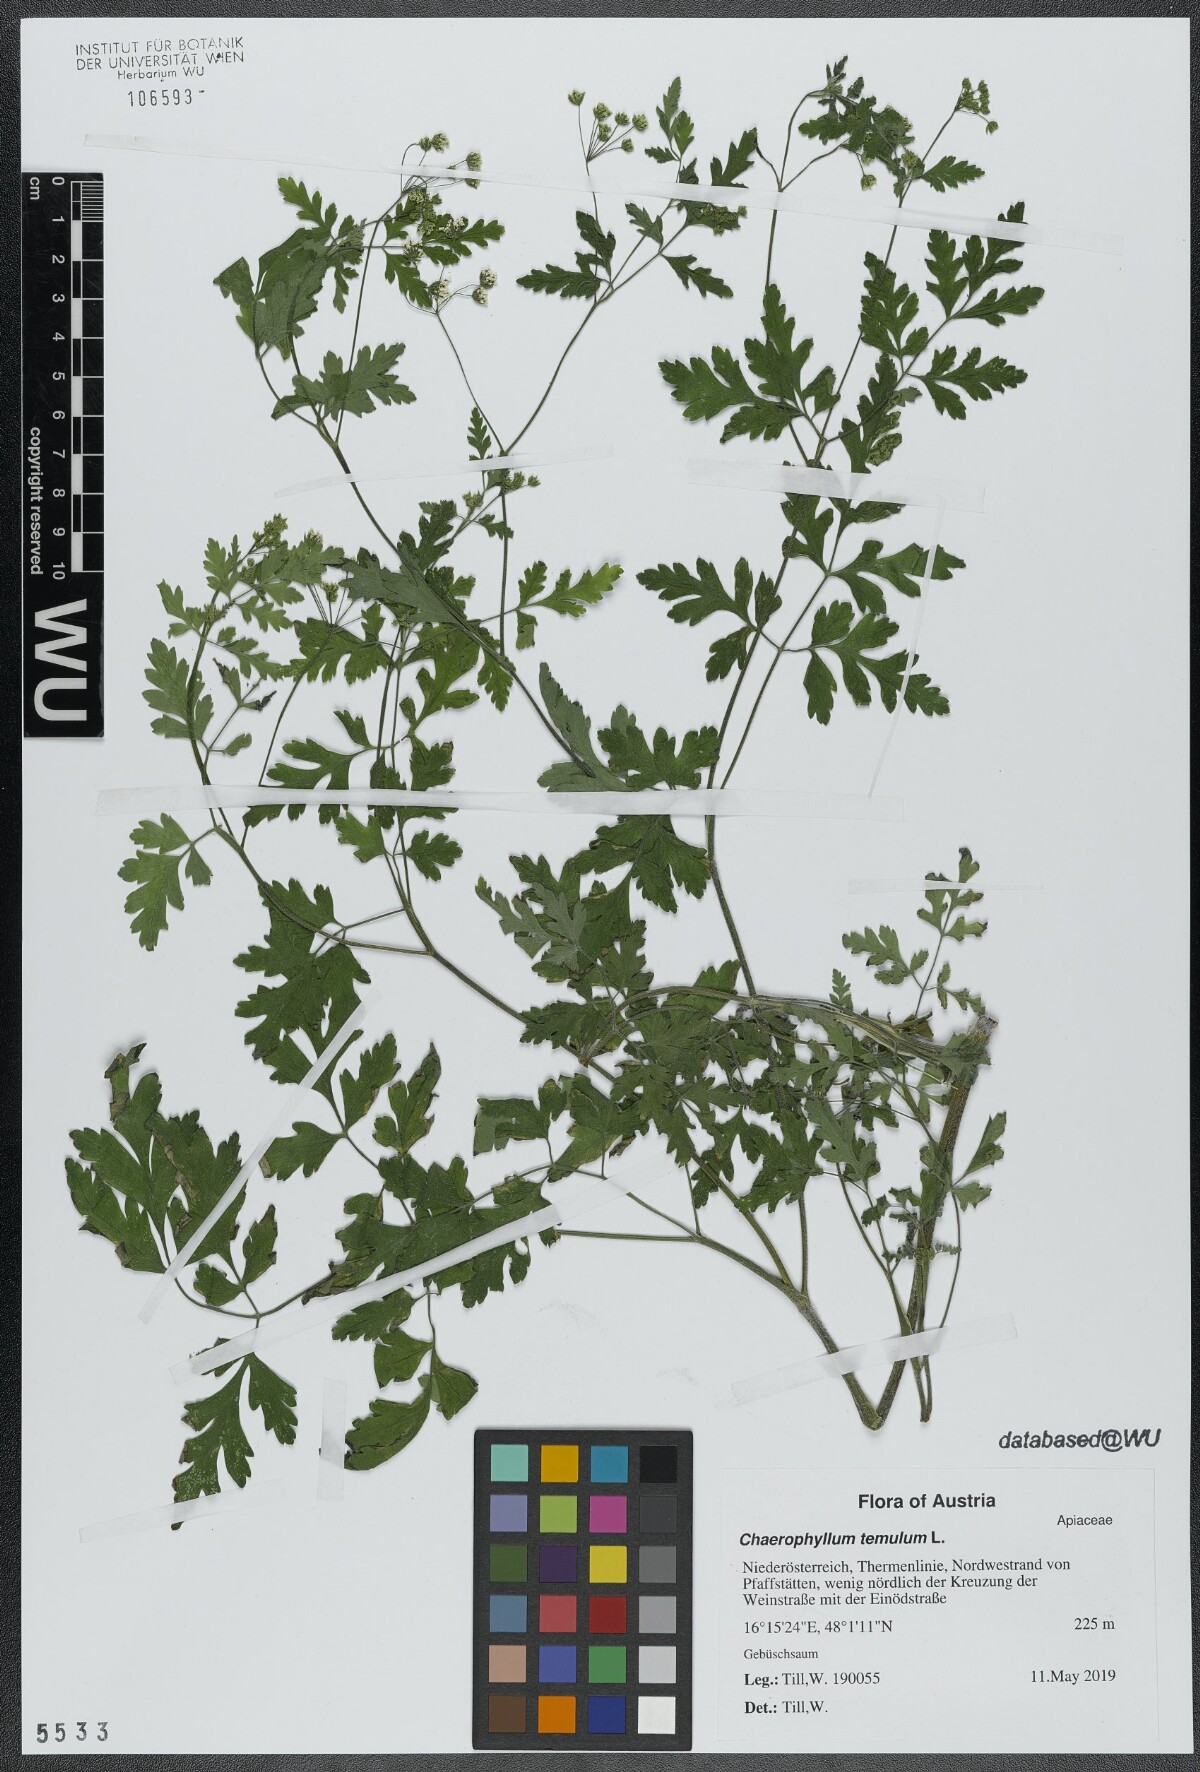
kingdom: Plantae
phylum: Tracheophyta
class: Magnoliopsida
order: Apiales
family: Apiaceae
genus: Chaerophyllum
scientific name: Chaerophyllum temulum
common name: Rough chervil
